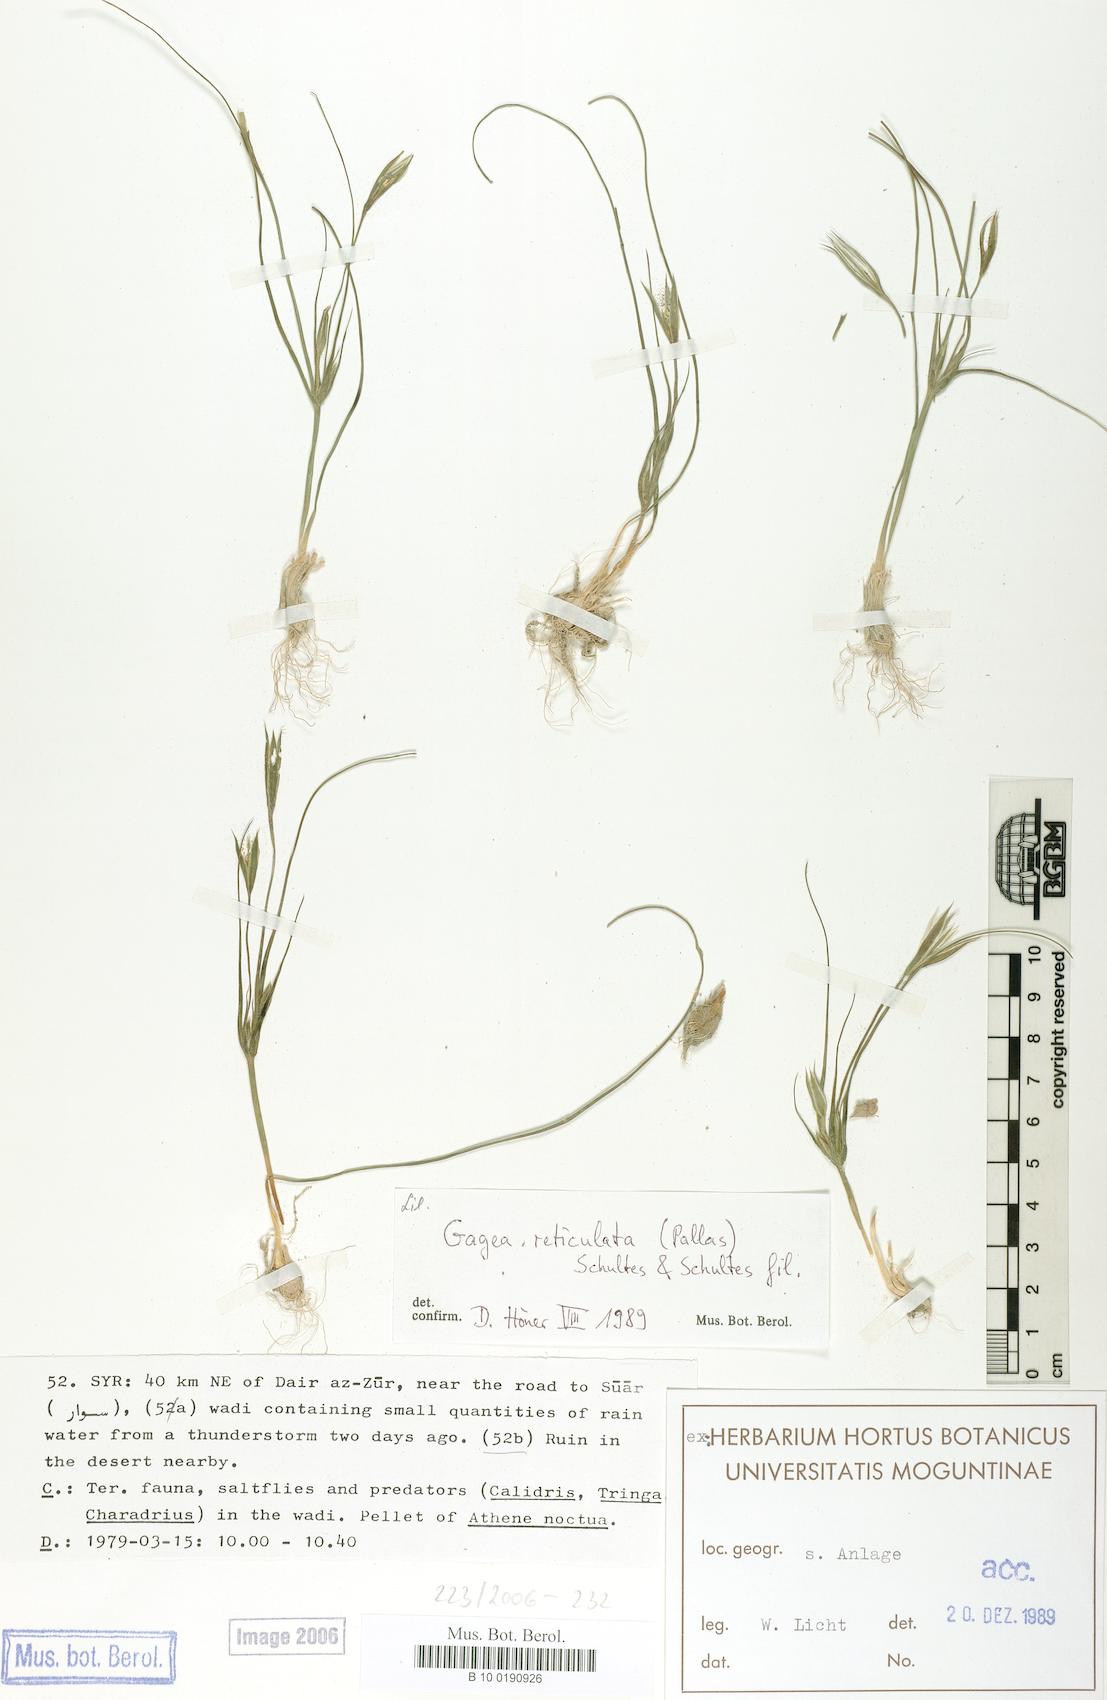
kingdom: Plantae
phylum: Tracheophyta
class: Liliopsida
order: Liliales
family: Liliaceae
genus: Gagea
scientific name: Gagea reticulata
